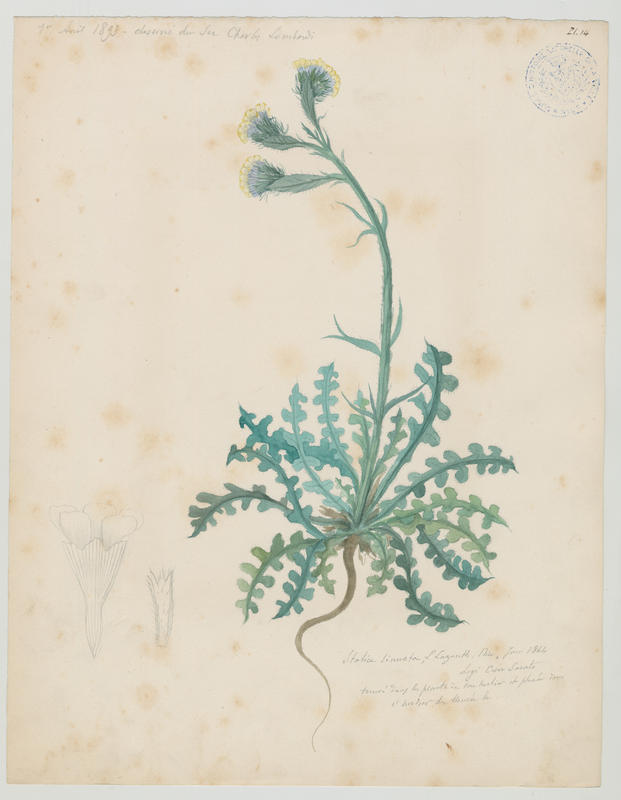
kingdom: Plantae
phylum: Tracheophyta
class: Magnoliopsida
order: Caryophyllales
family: Plumbaginaceae
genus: Limonium
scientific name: Limonium sinuatum
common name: Statice
